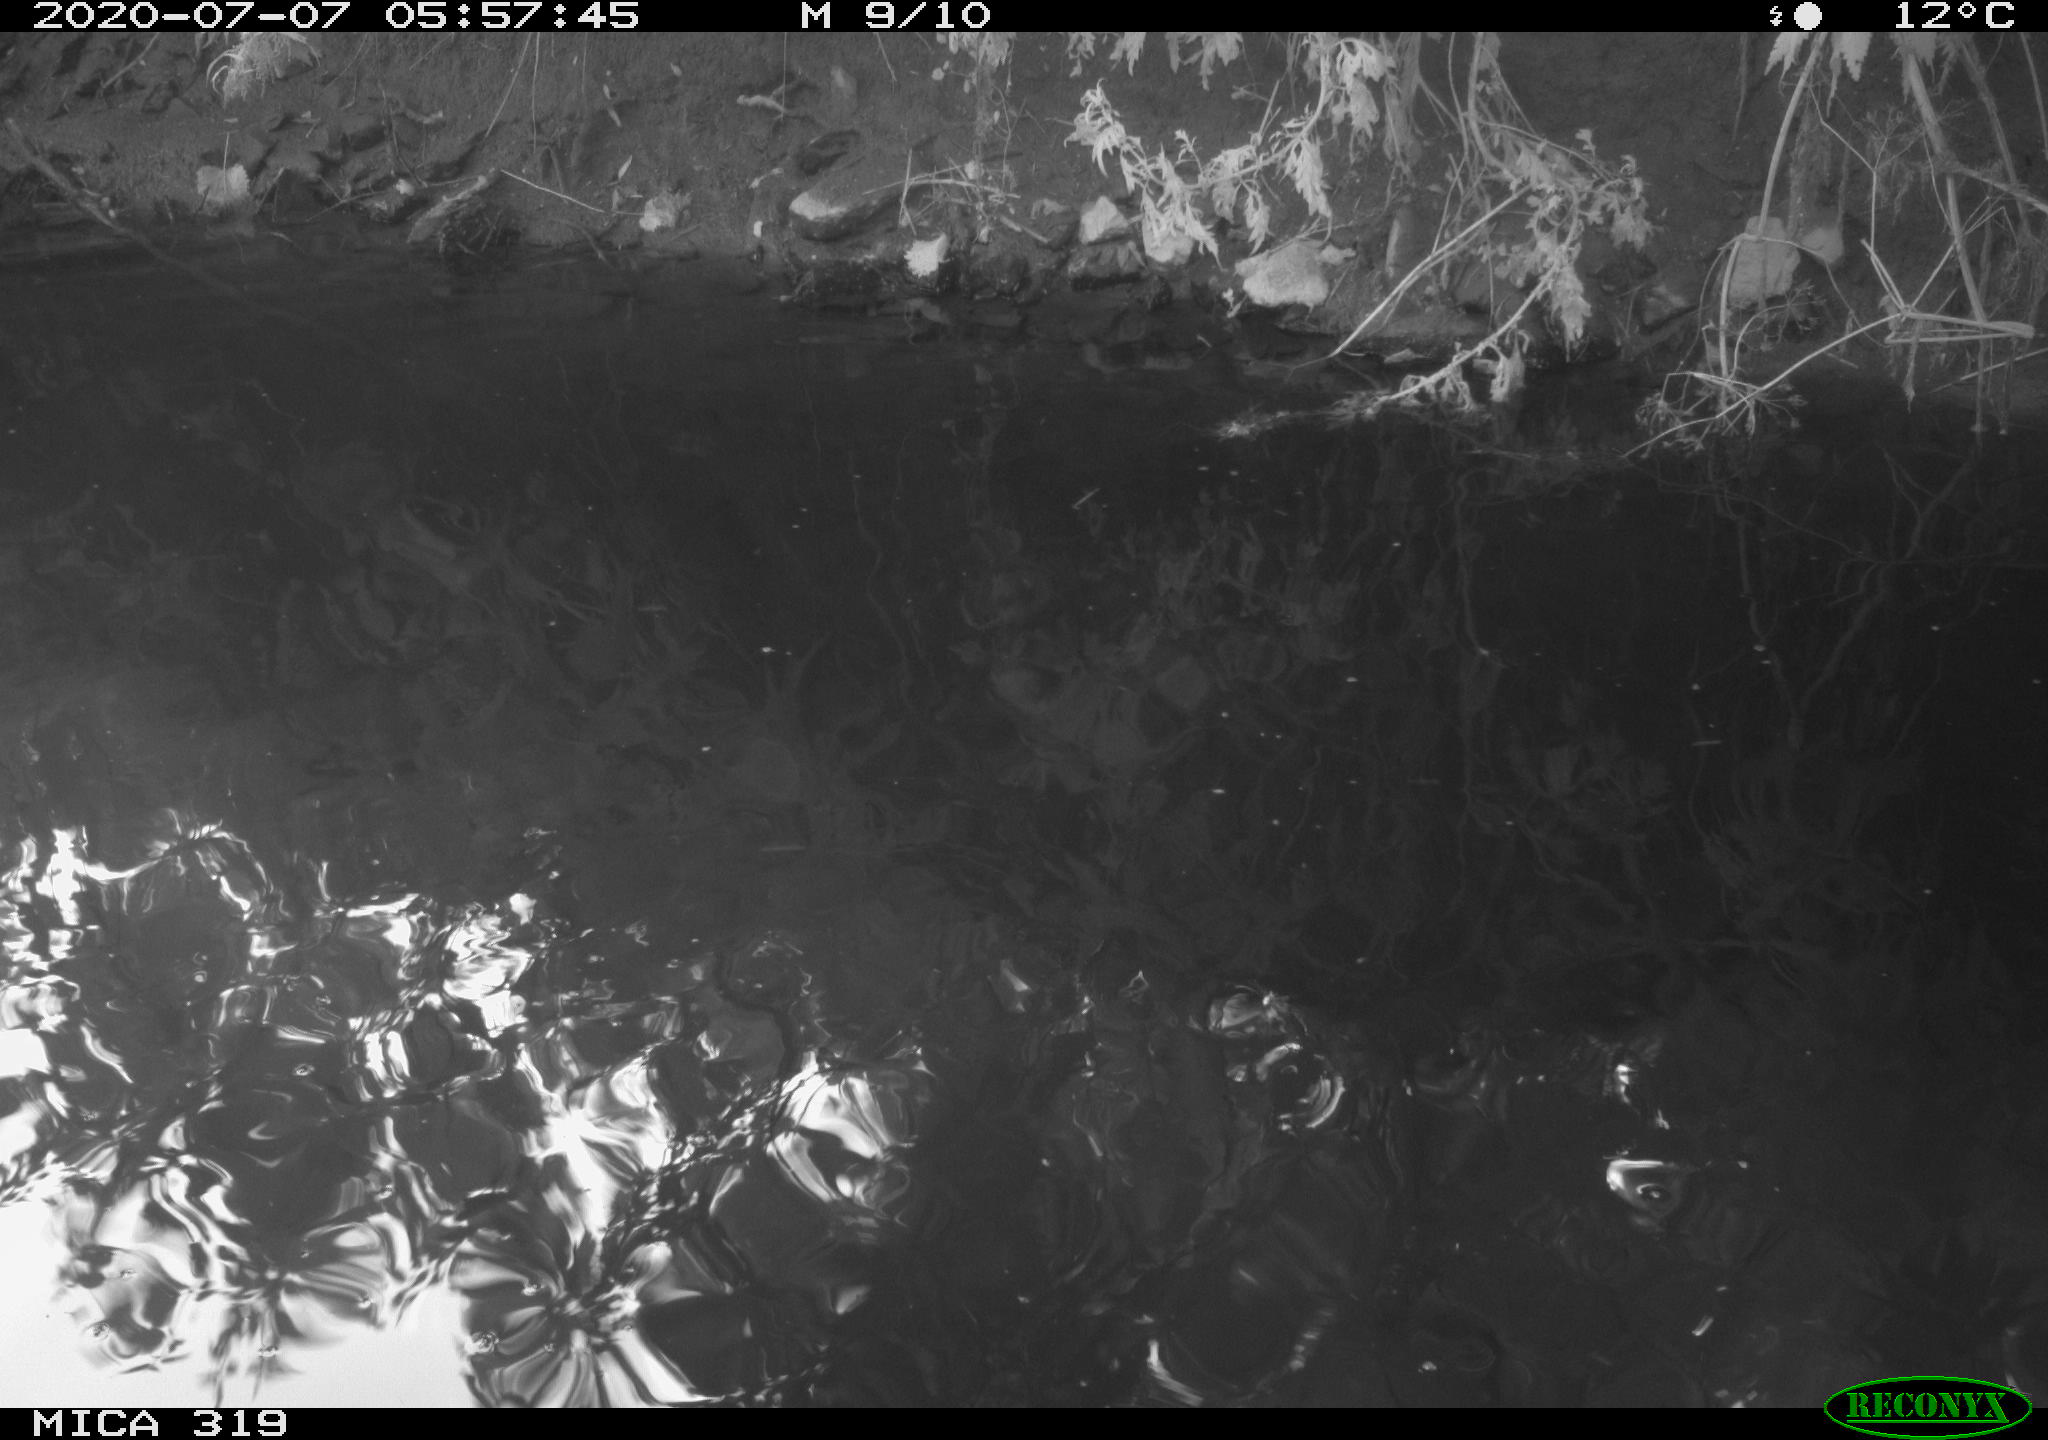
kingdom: Animalia
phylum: Chordata
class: Aves
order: Anseriformes
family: Anatidae
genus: Anas
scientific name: Anas platyrhynchos
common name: Mallard
